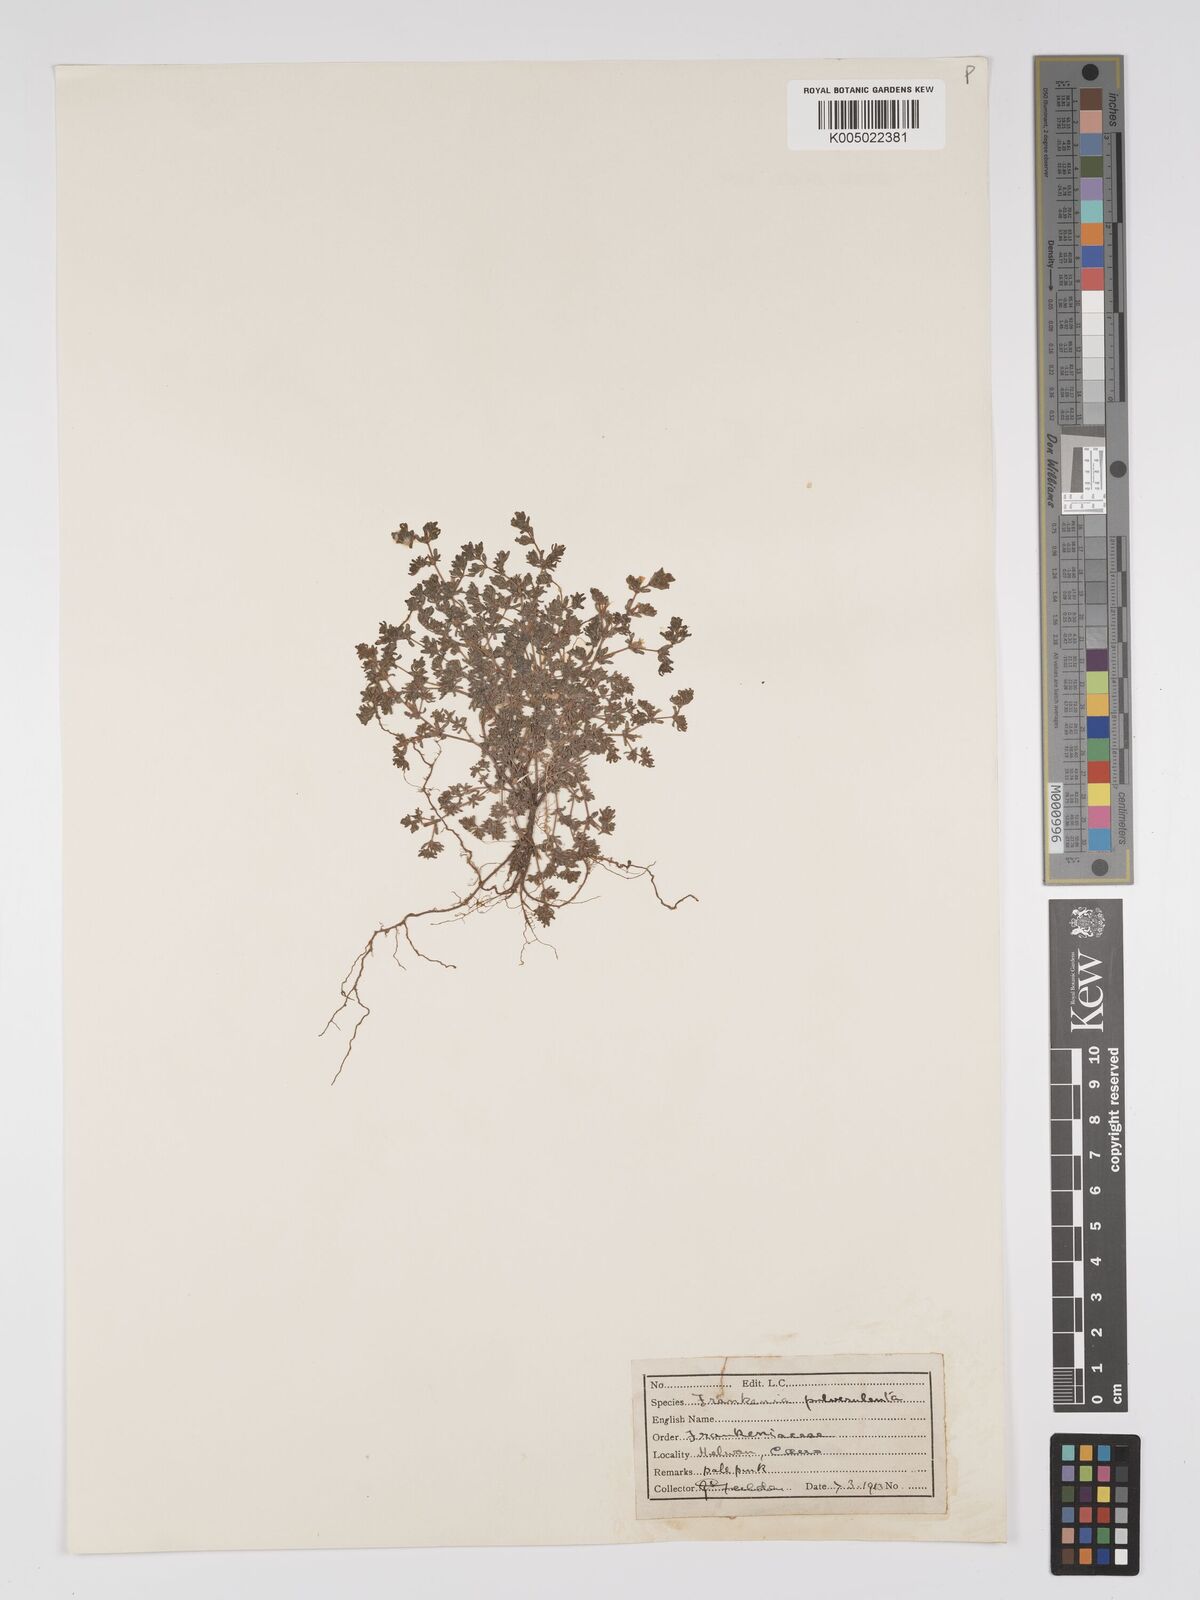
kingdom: Plantae
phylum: Tracheophyta
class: Magnoliopsida
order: Caryophyllales
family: Frankeniaceae
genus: Frankenia
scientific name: Frankenia pulverulenta
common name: European seaheath
